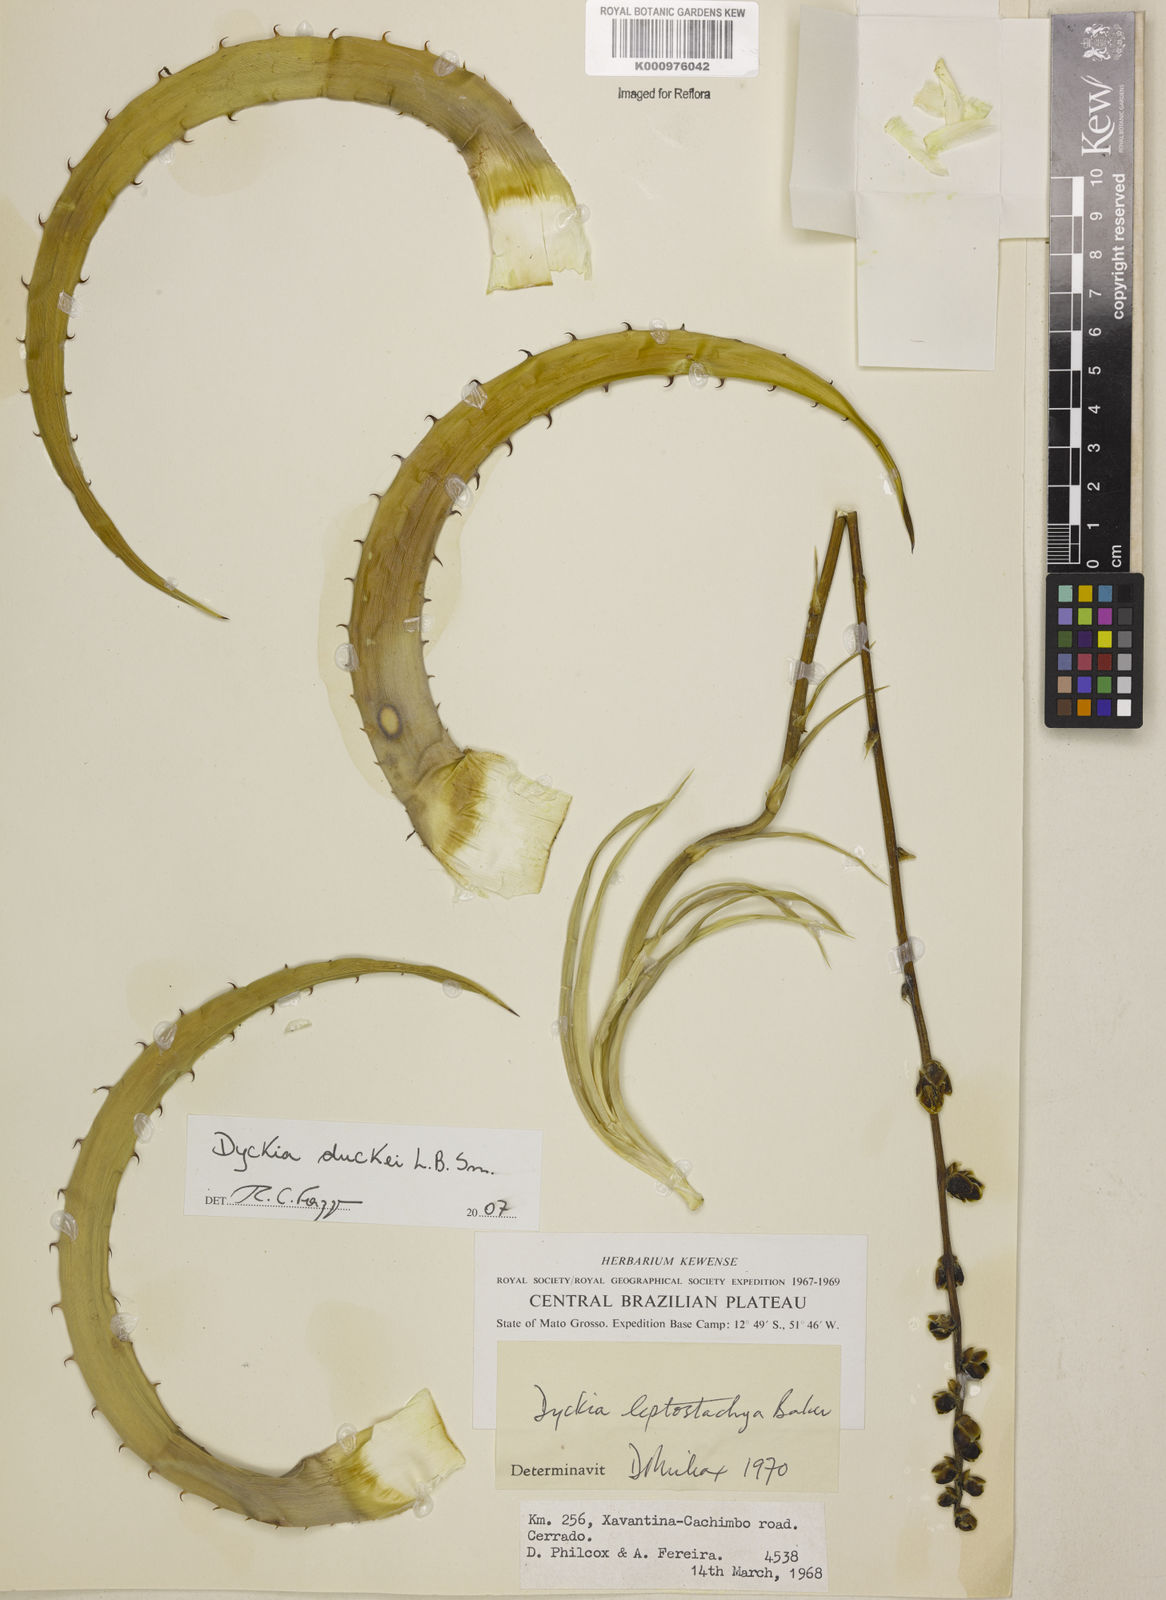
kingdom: Plantae
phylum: Tracheophyta
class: Liliopsida
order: Poales
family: Bromeliaceae
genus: Dyckia
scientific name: Dyckia duckei
